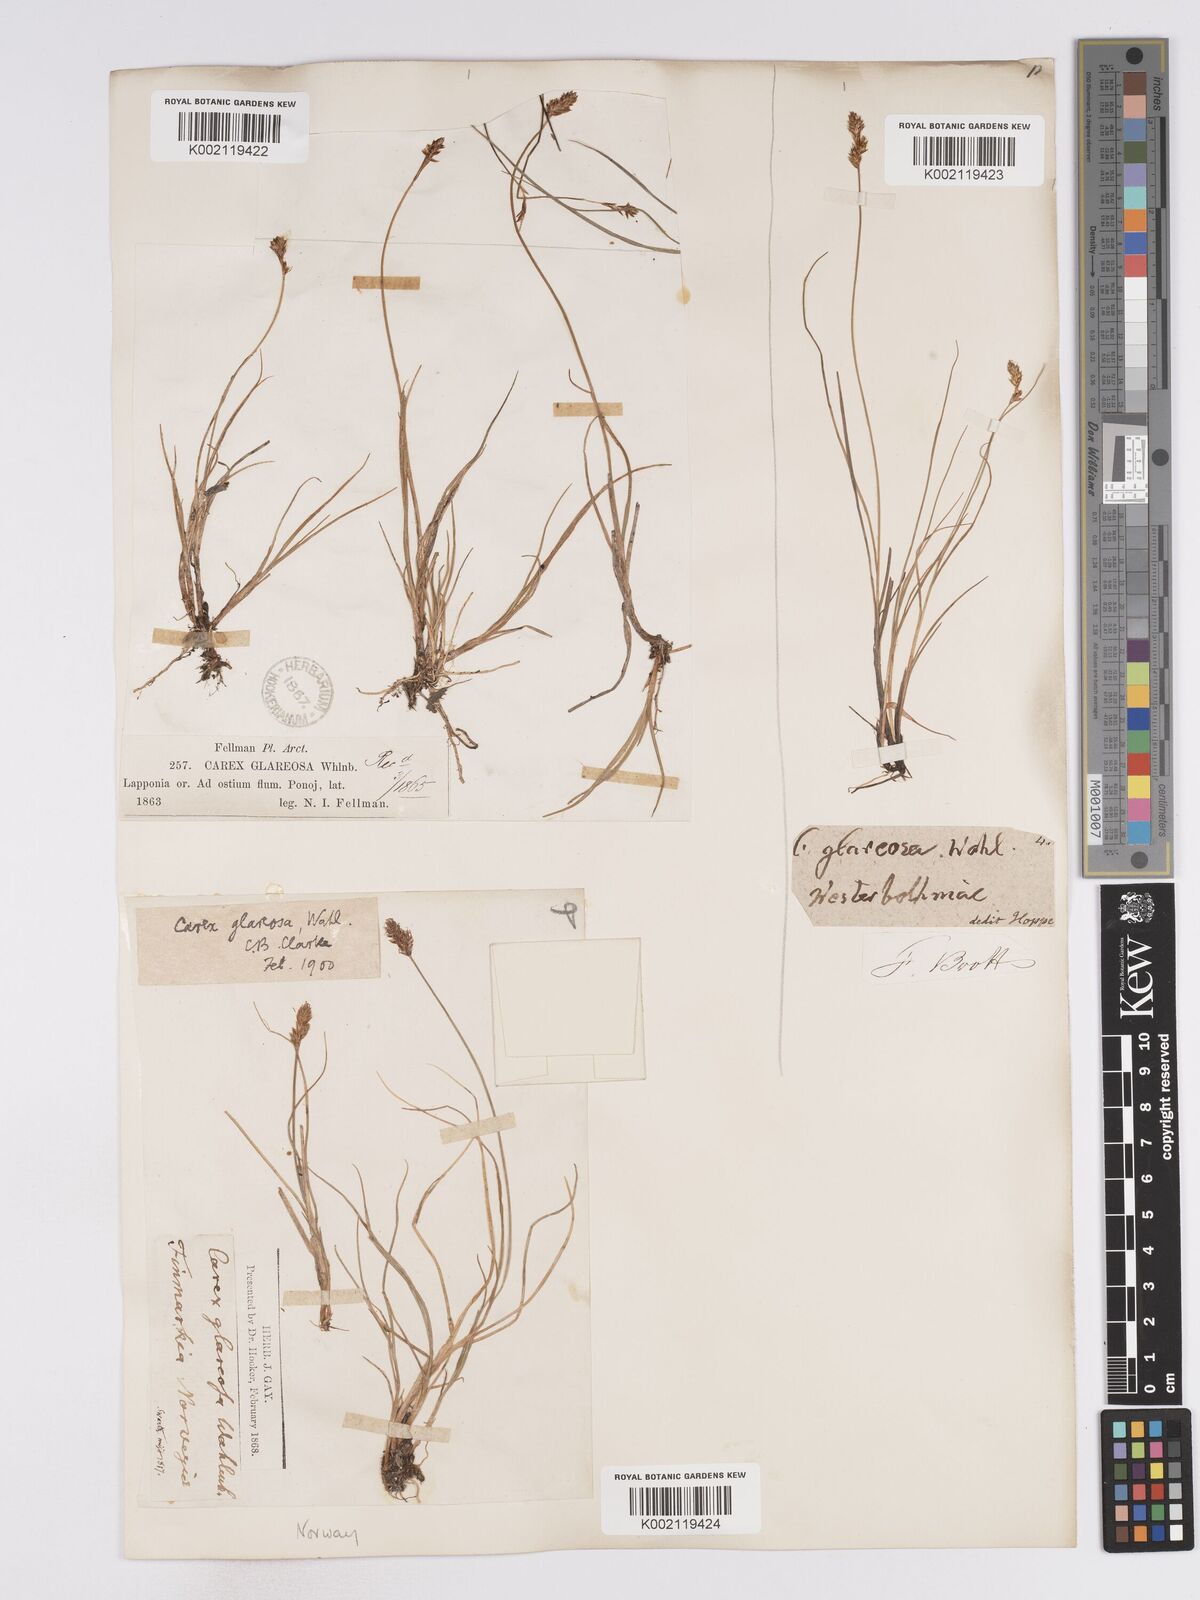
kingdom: Plantae
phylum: Tracheophyta
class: Liliopsida
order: Poales
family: Cyperaceae
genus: Carex
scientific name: Carex glareosa
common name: Clustered sedge
